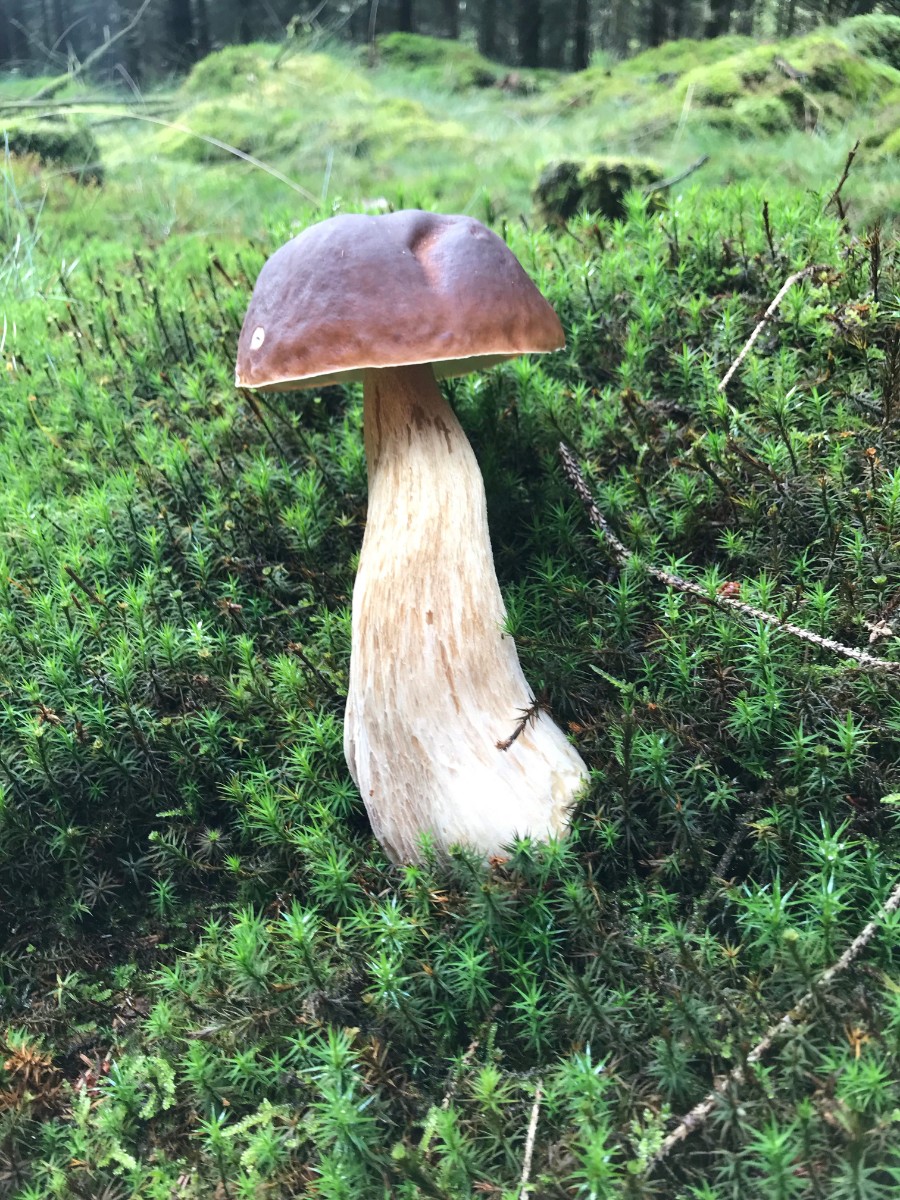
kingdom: Fungi
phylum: Basidiomycota
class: Agaricomycetes
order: Boletales
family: Boletaceae
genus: Boletus
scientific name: Boletus edulis
